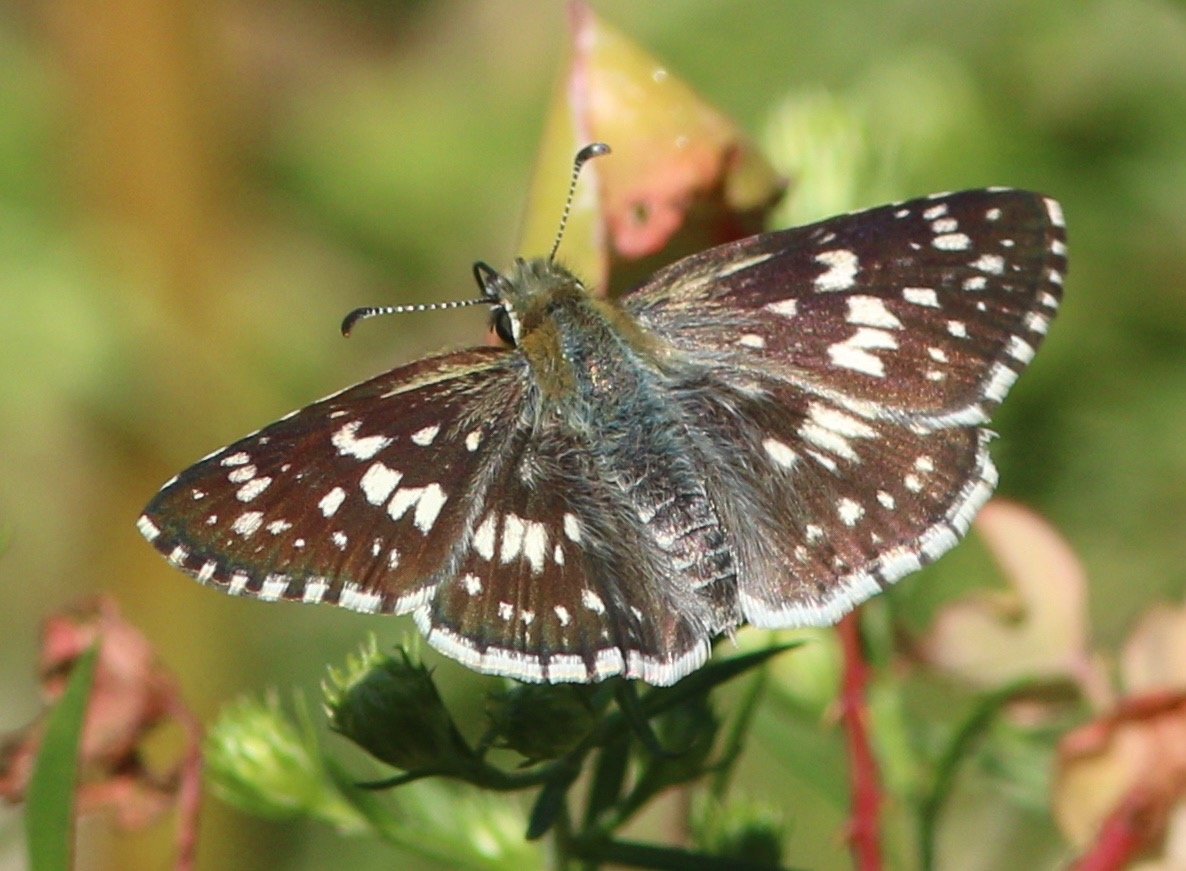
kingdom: Animalia
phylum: Arthropoda
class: Insecta
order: Lepidoptera
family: Hesperiidae
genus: Pyrgus
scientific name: Pyrgus communis
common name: Common Checkered-Skipper
